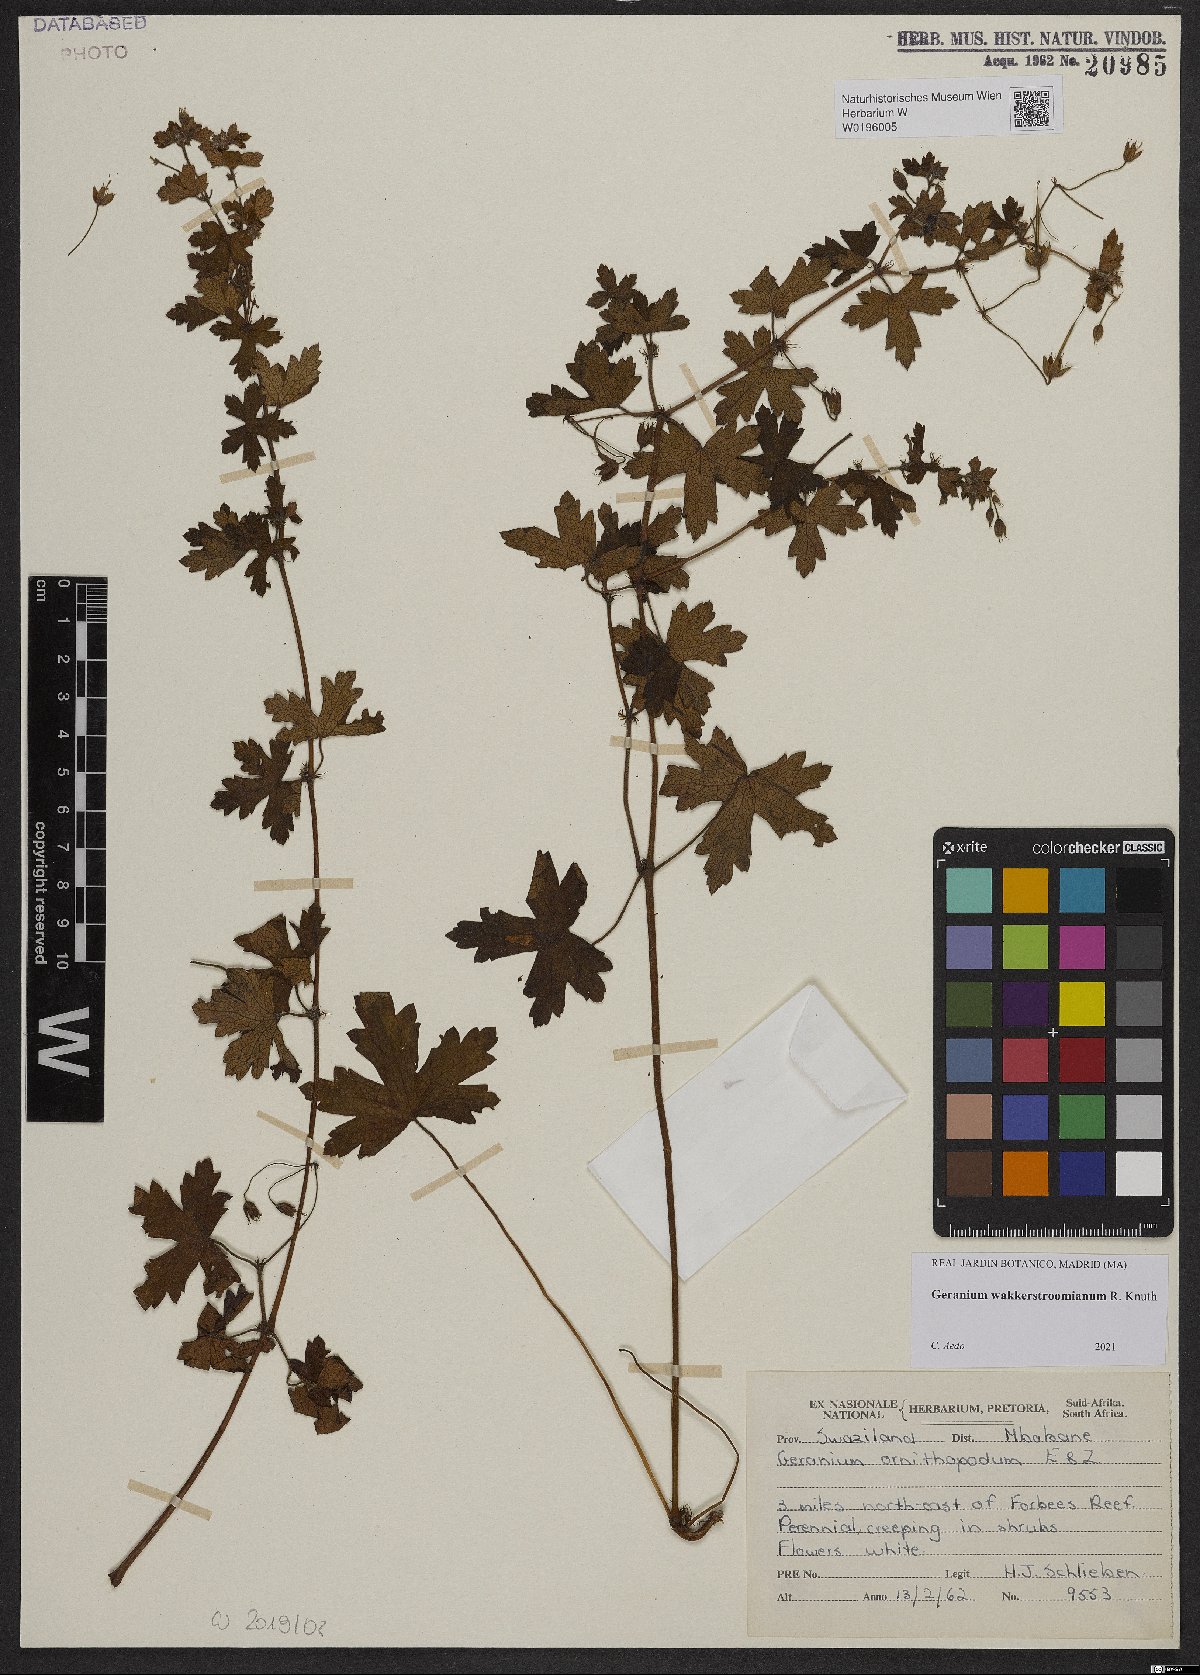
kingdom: Plantae
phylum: Tracheophyta
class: Magnoliopsida
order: Geraniales
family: Geraniaceae
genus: Geranium
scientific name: Geranium wakkerstroomianum
